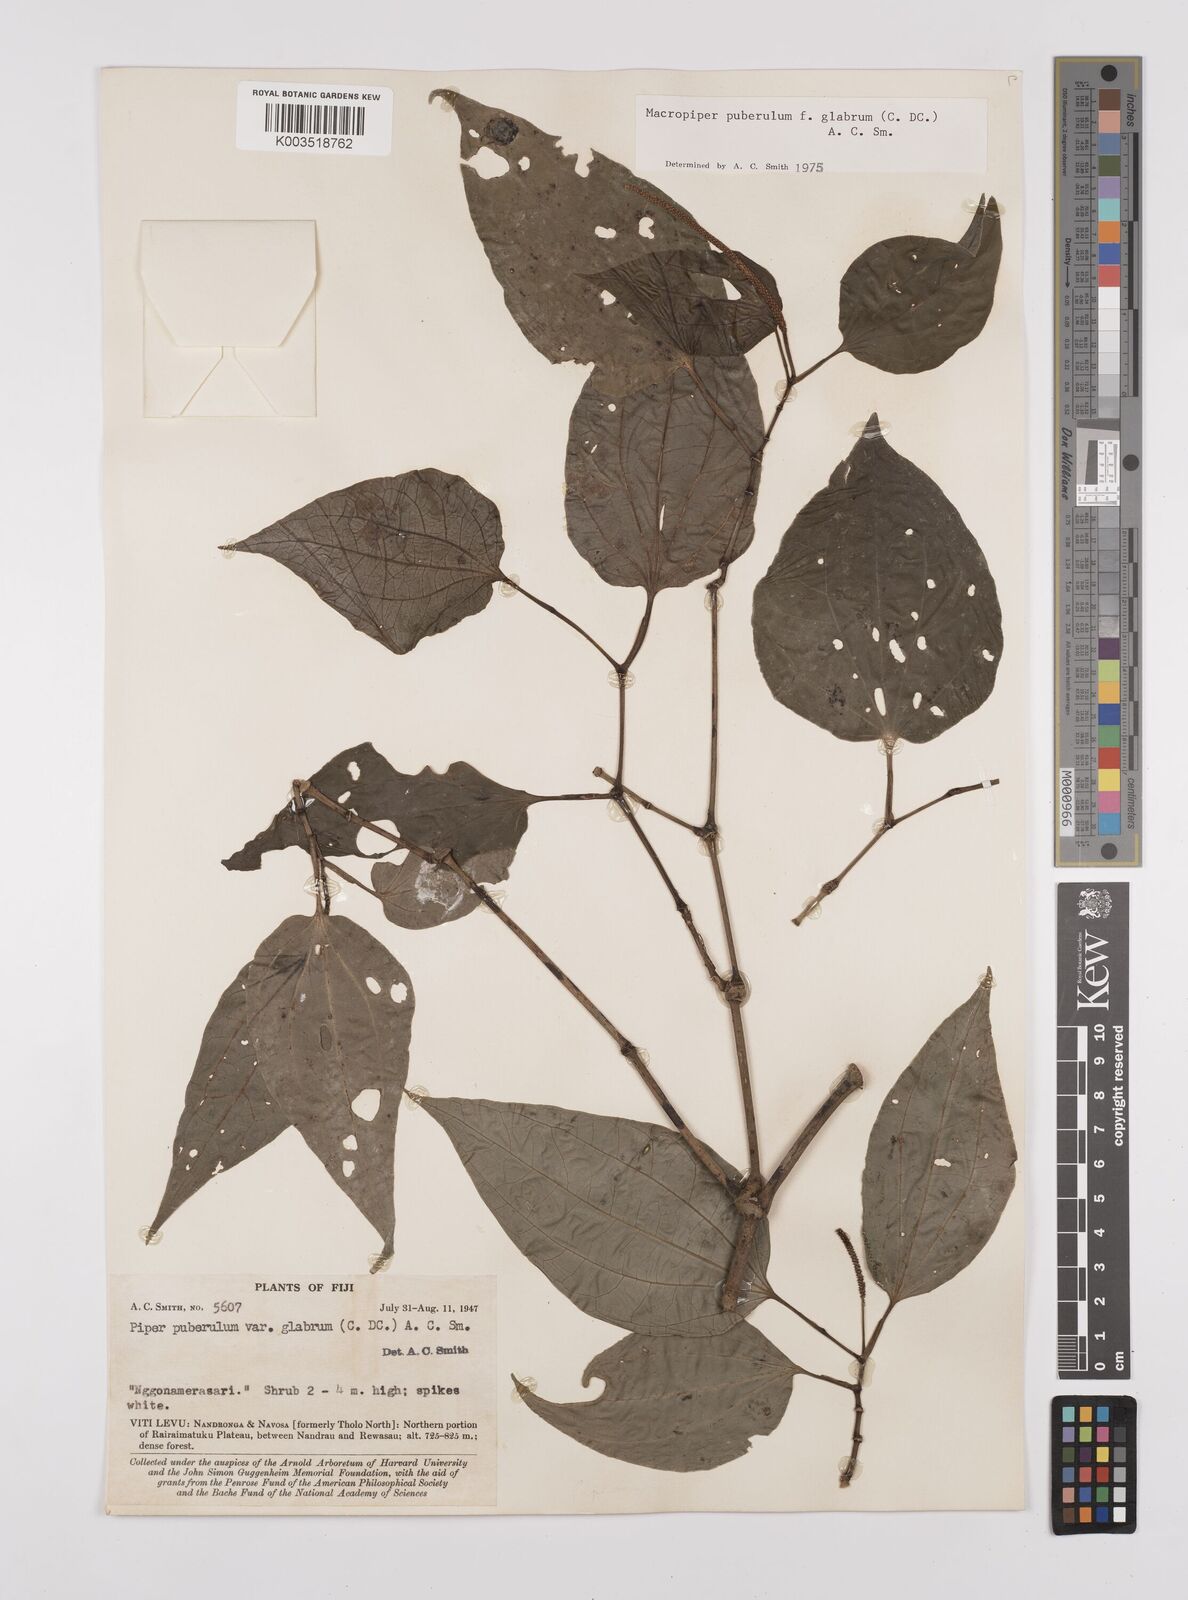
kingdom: Plantae
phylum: Tracheophyta
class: Magnoliopsida
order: Piperales
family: Piperaceae
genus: Macropiper
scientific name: Macropiper puberulum
